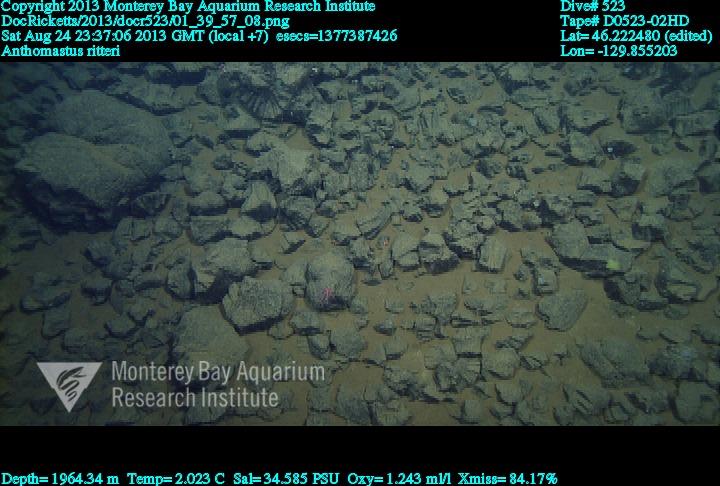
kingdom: Animalia
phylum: Cnidaria
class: Anthozoa
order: Scleralcyonacea
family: Coralliidae
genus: Heteropolypus
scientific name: Heteropolypus ritteri
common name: Ritter's soft coral
